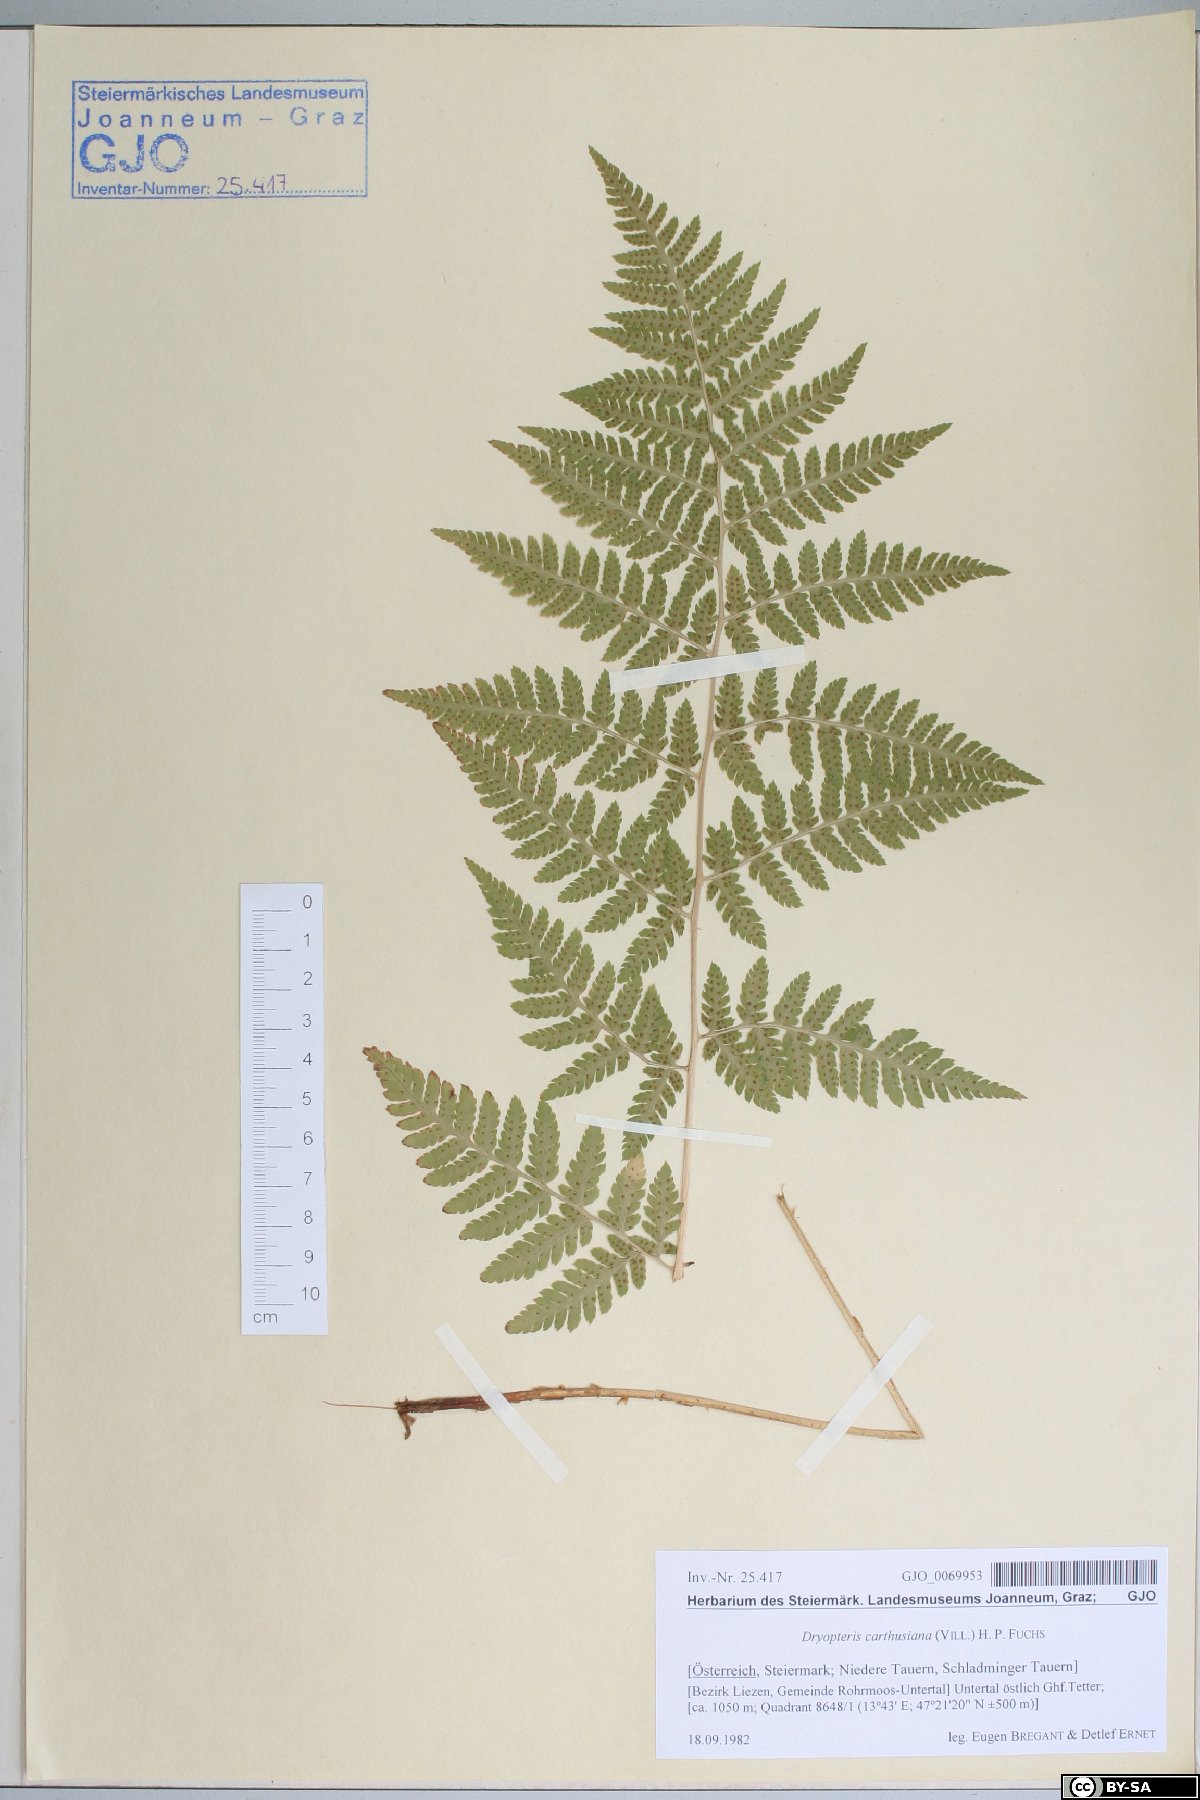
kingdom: Plantae
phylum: Tracheophyta
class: Polypodiopsida
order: Polypodiales
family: Dryopteridaceae
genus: Dryopteris
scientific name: Dryopteris carthusiana
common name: Narrow buckler-fern
